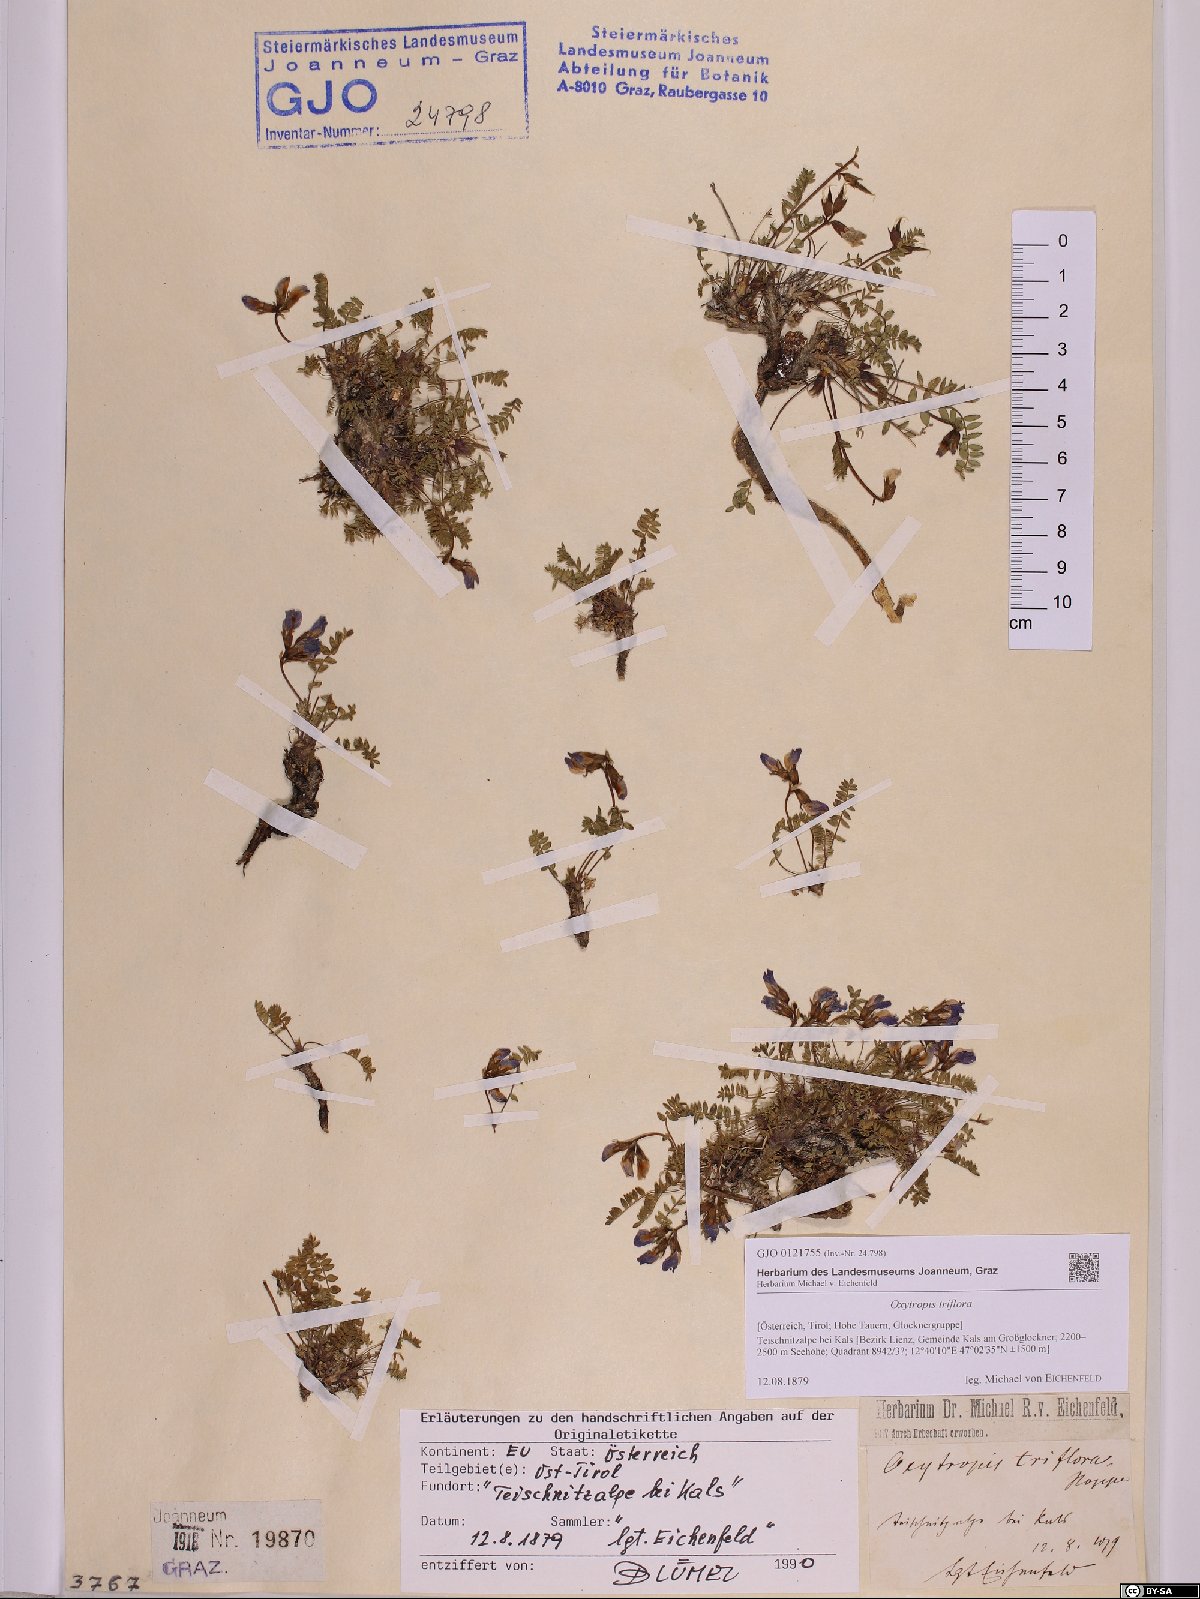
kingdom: Plantae
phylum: Tracheophyta
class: Magnoliopsida
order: Fabales
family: Fabaceae
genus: Oxytropis
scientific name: Oxytropis triflora
